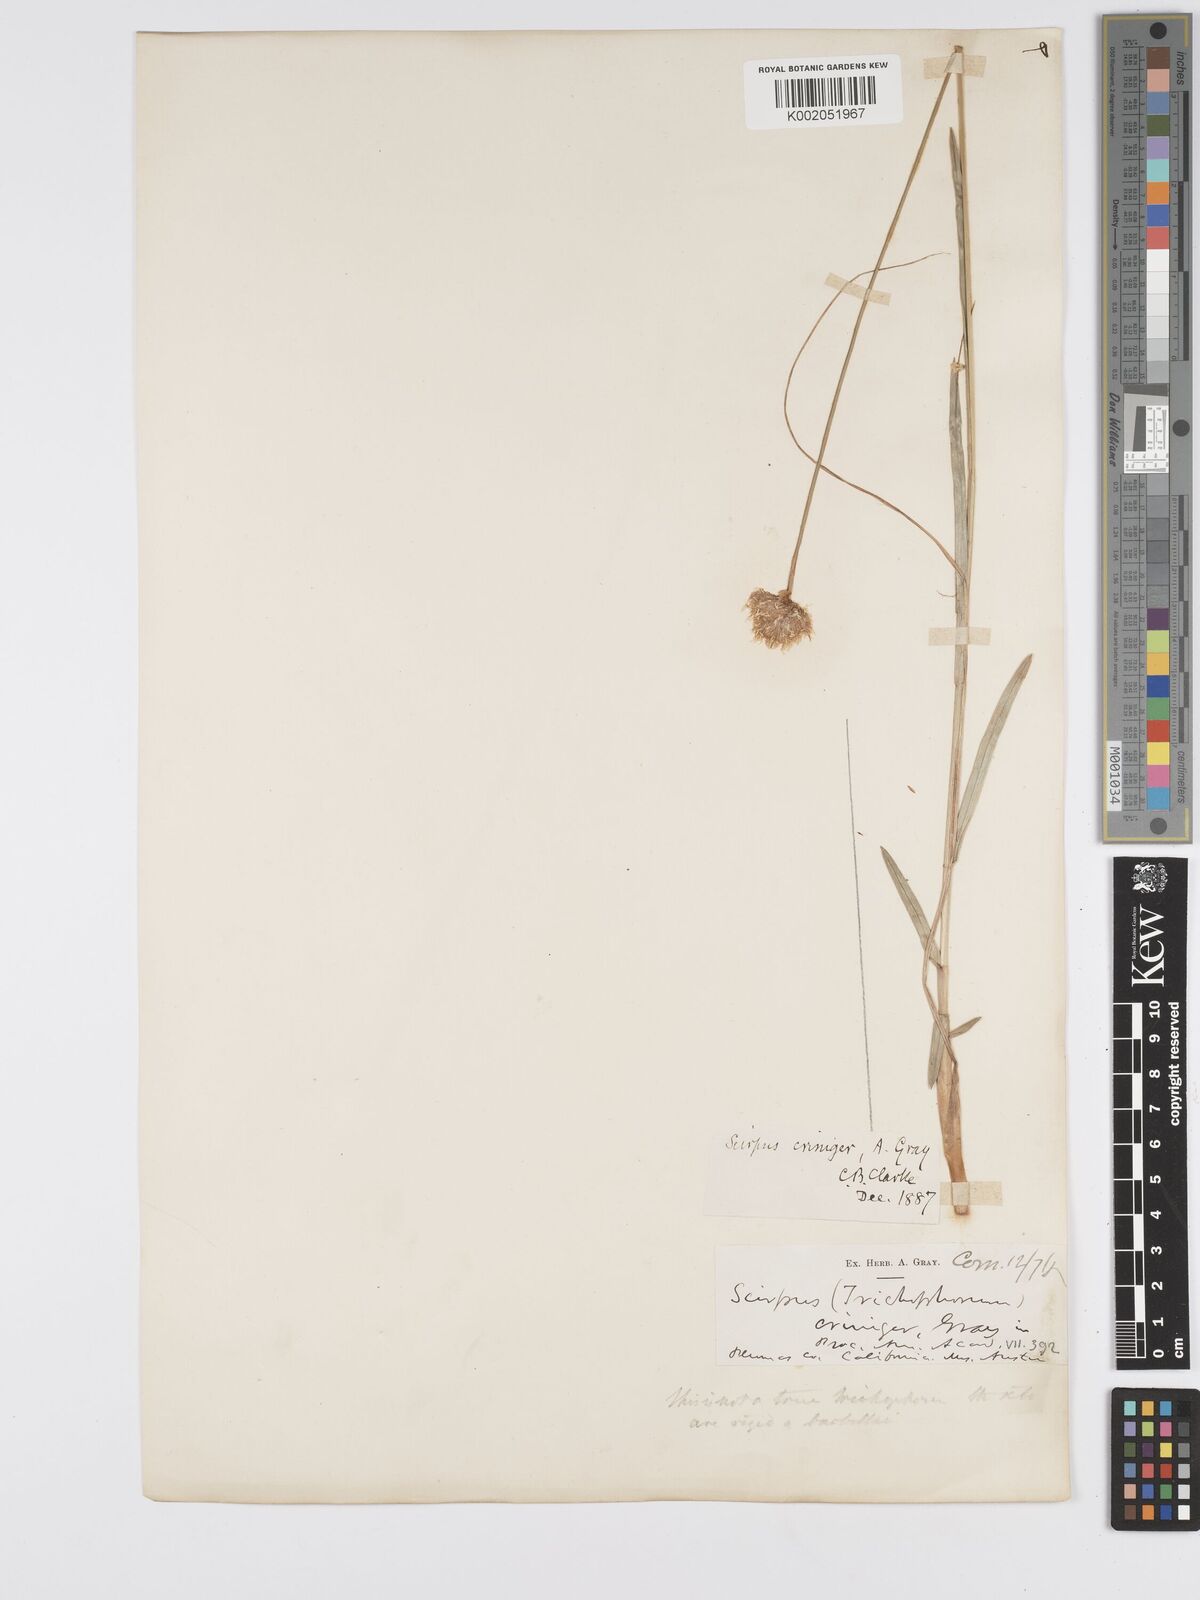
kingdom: Plantae
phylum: Tracheophyta
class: Liliopsida
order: Poales
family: Cyperaceae
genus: Calliscirpus
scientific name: Calliscirpus criniger
